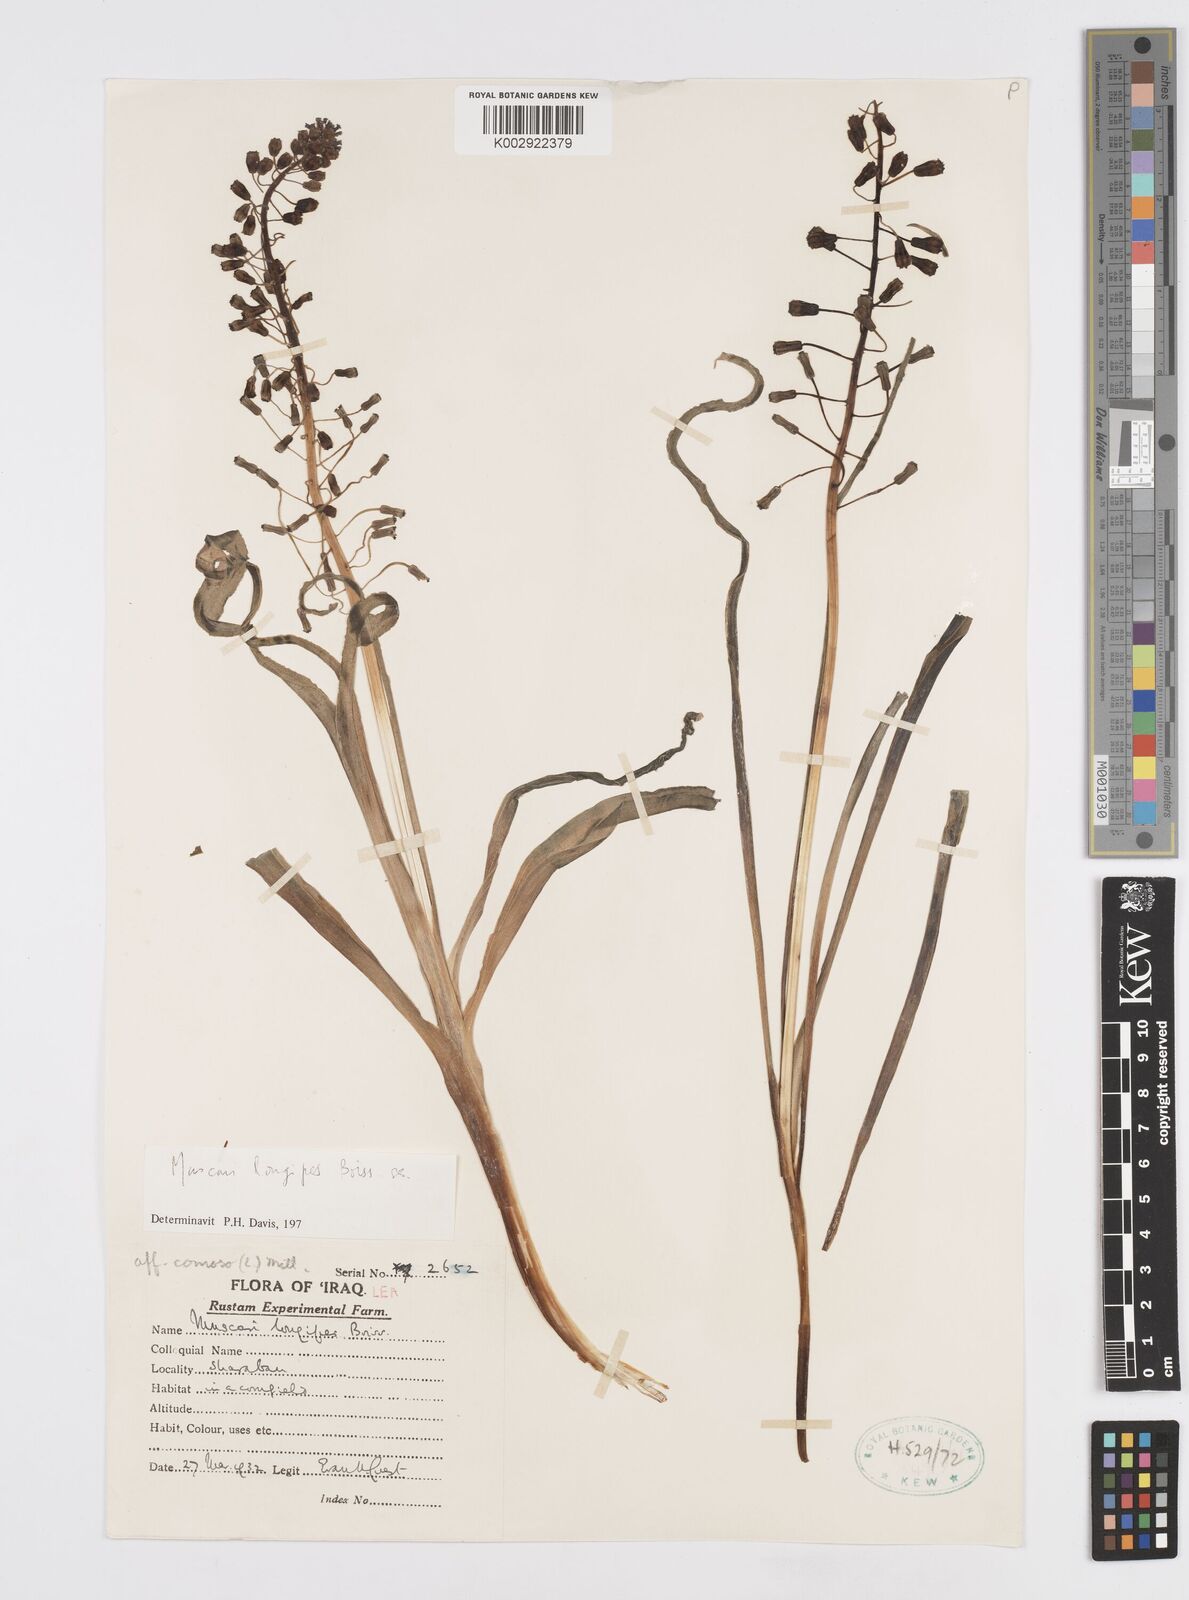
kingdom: Plantae
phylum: Tracheophyta
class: Liliopsida
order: Asparagales
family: Asparagaceae
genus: Muscari
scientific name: Muscari longipes
